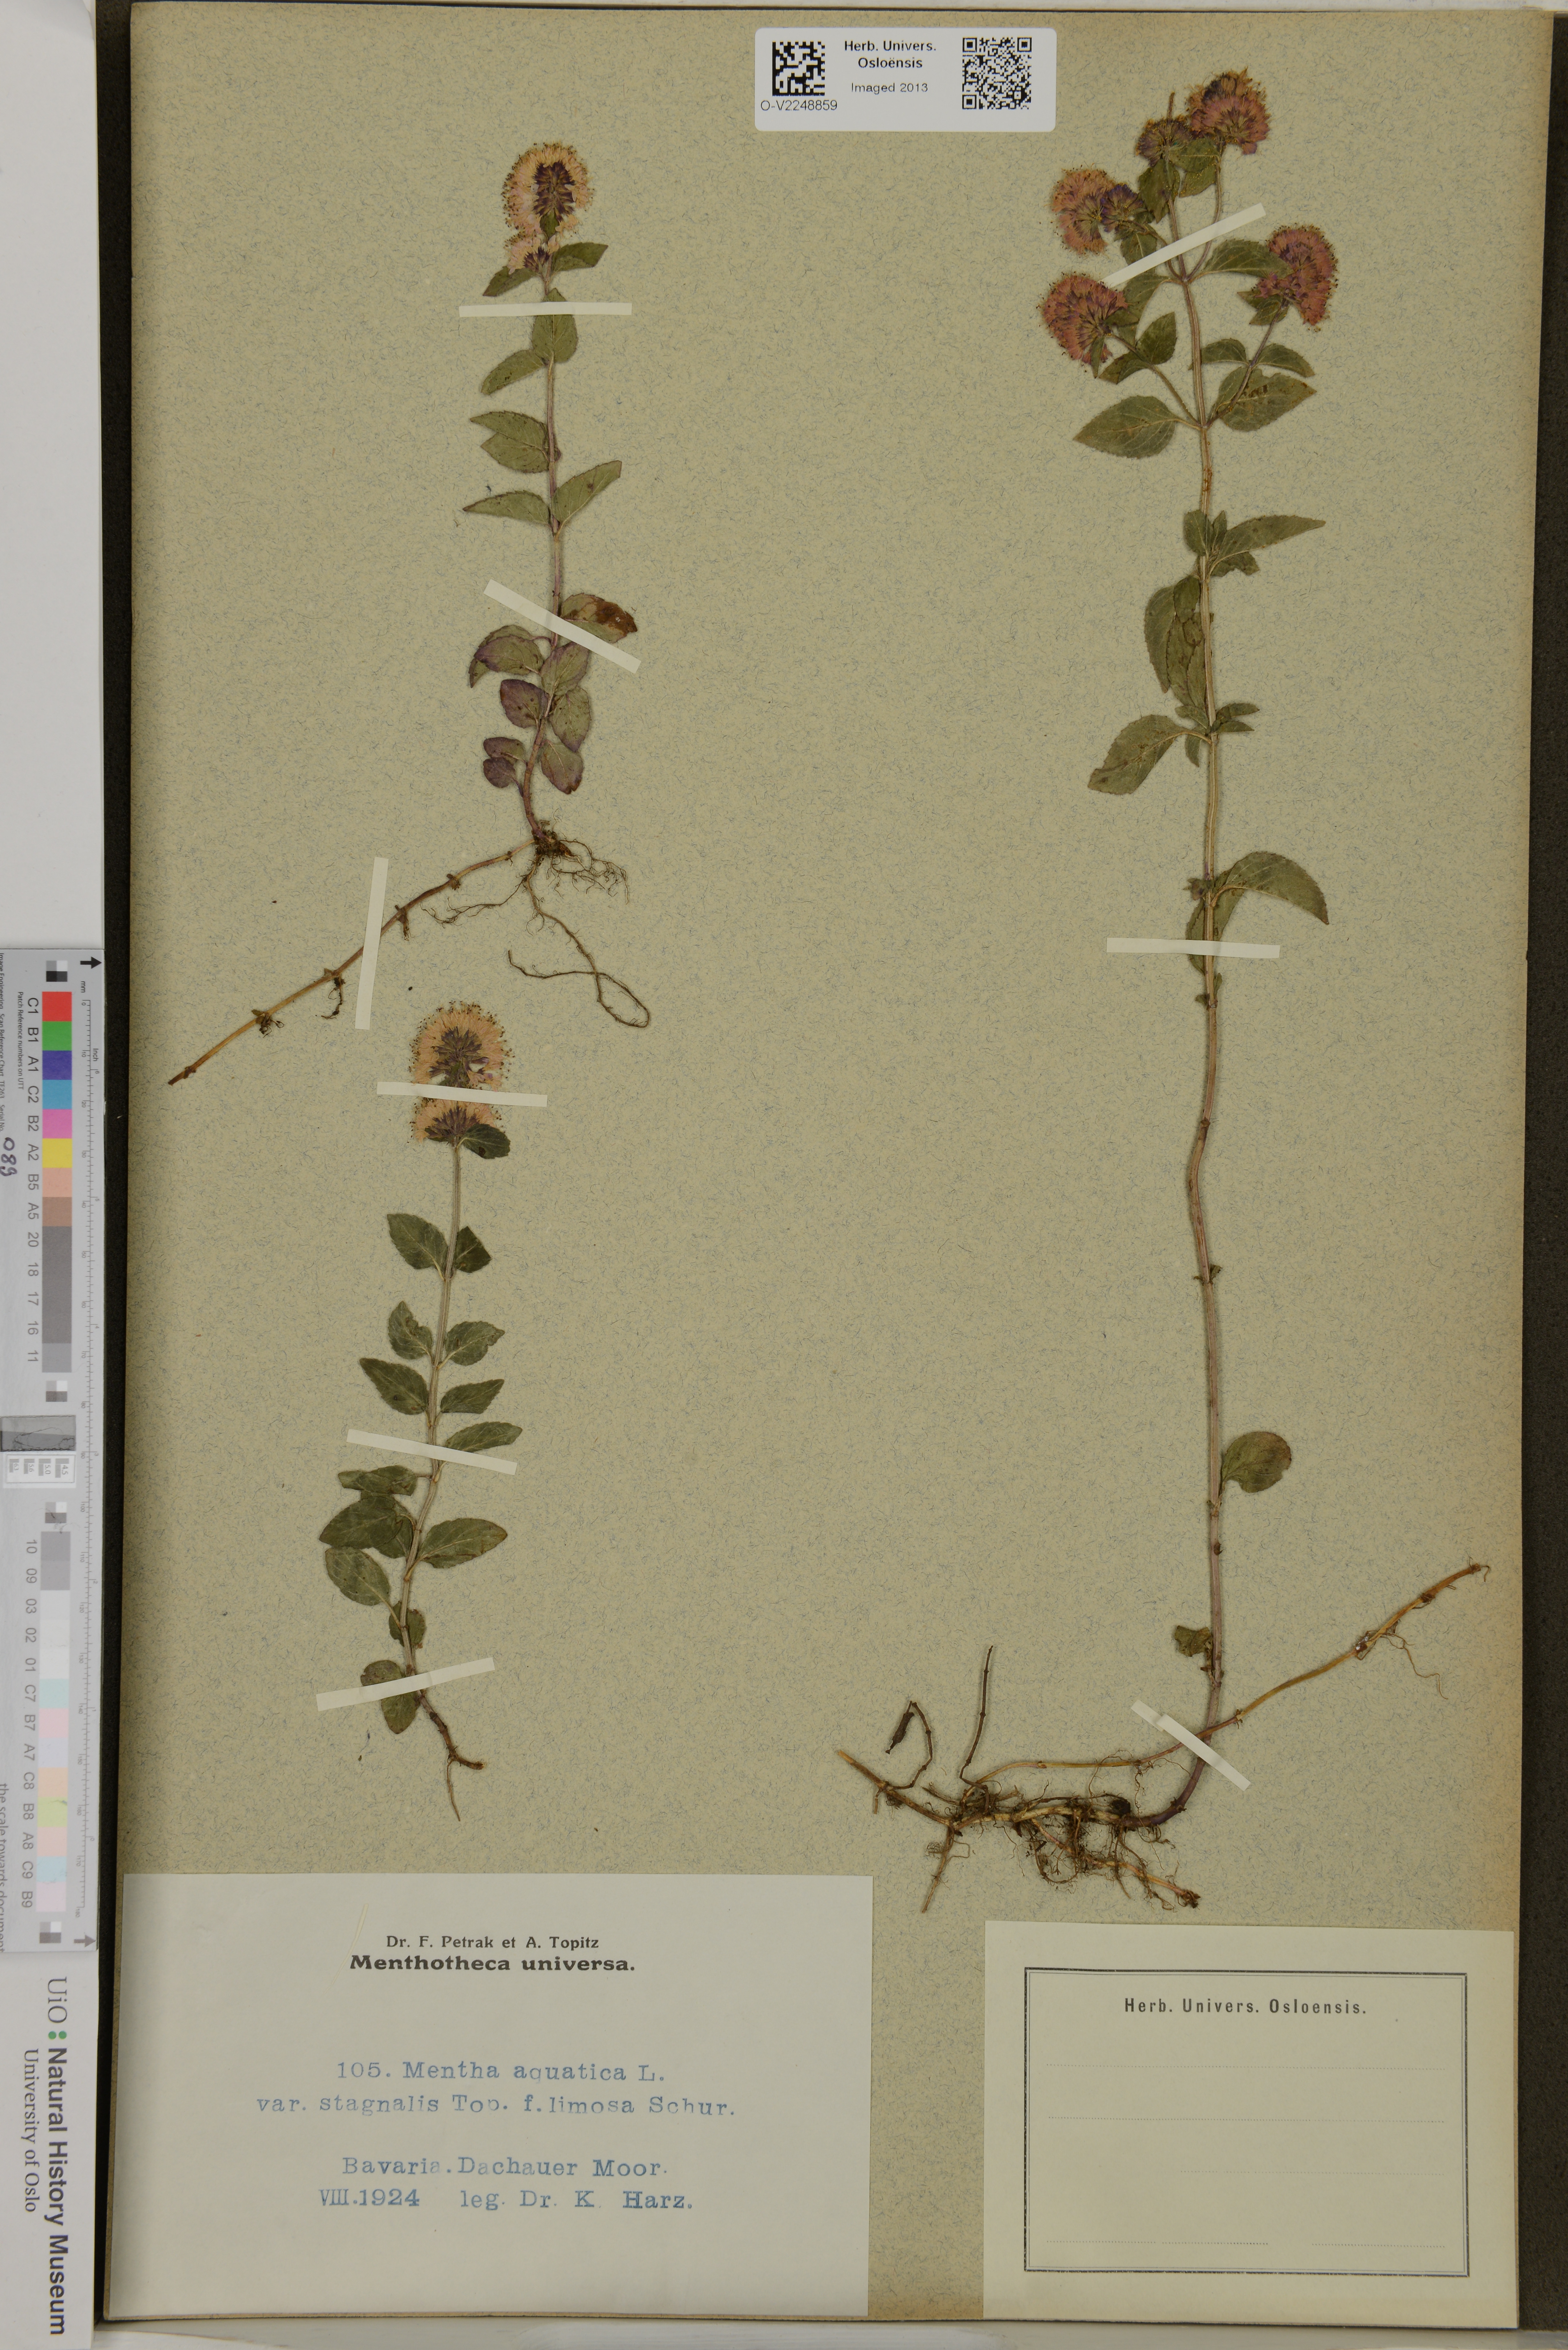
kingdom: Plantae
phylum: Tracheophyta
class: Magnoliopsida
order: Lamiales
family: Lamiaceae
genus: Mentha
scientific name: Mentha aquatica
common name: Water mint
